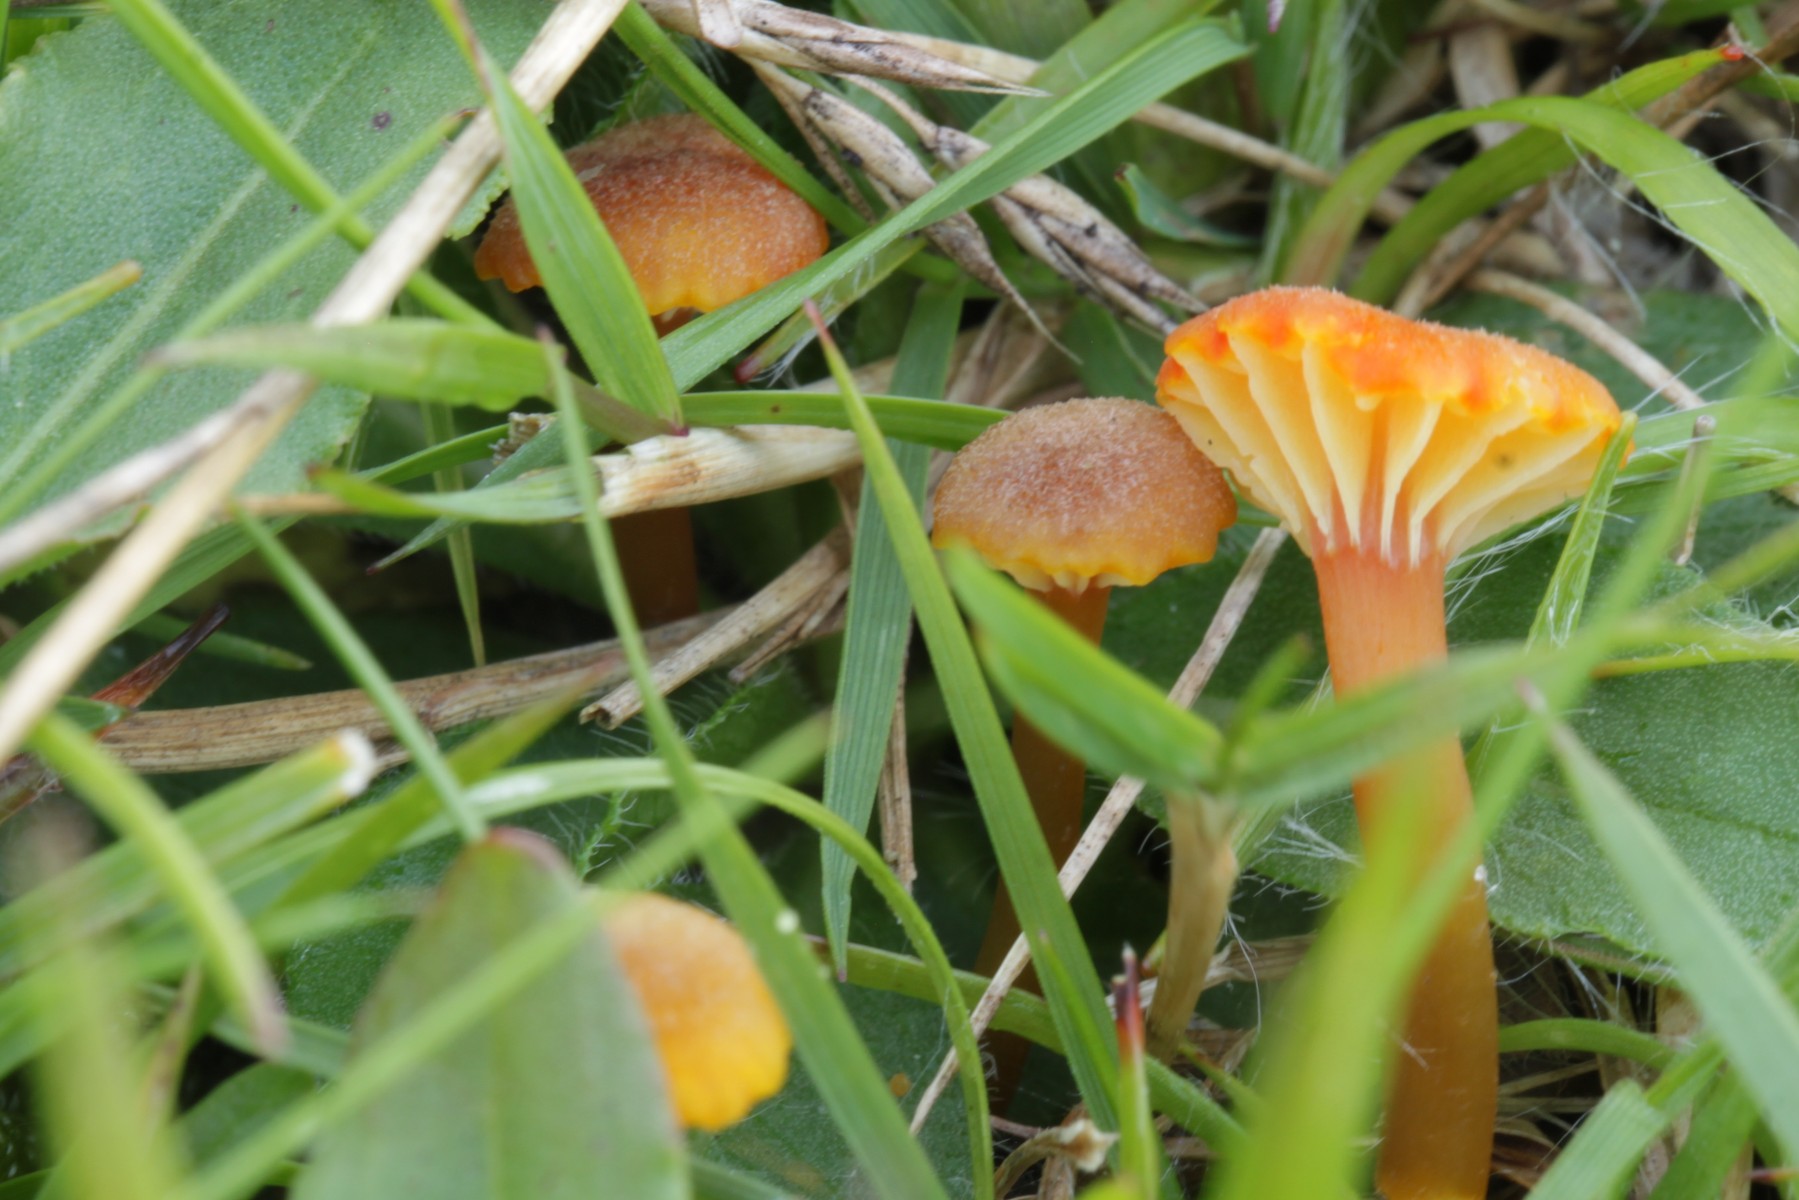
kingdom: Fungi
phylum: Basidiomycota
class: Agaricomycetes
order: Agaricales
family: Hygrophoraceae
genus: Hygrocybe
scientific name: Hygrocybe cantharellus
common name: kantarel-vokshat
